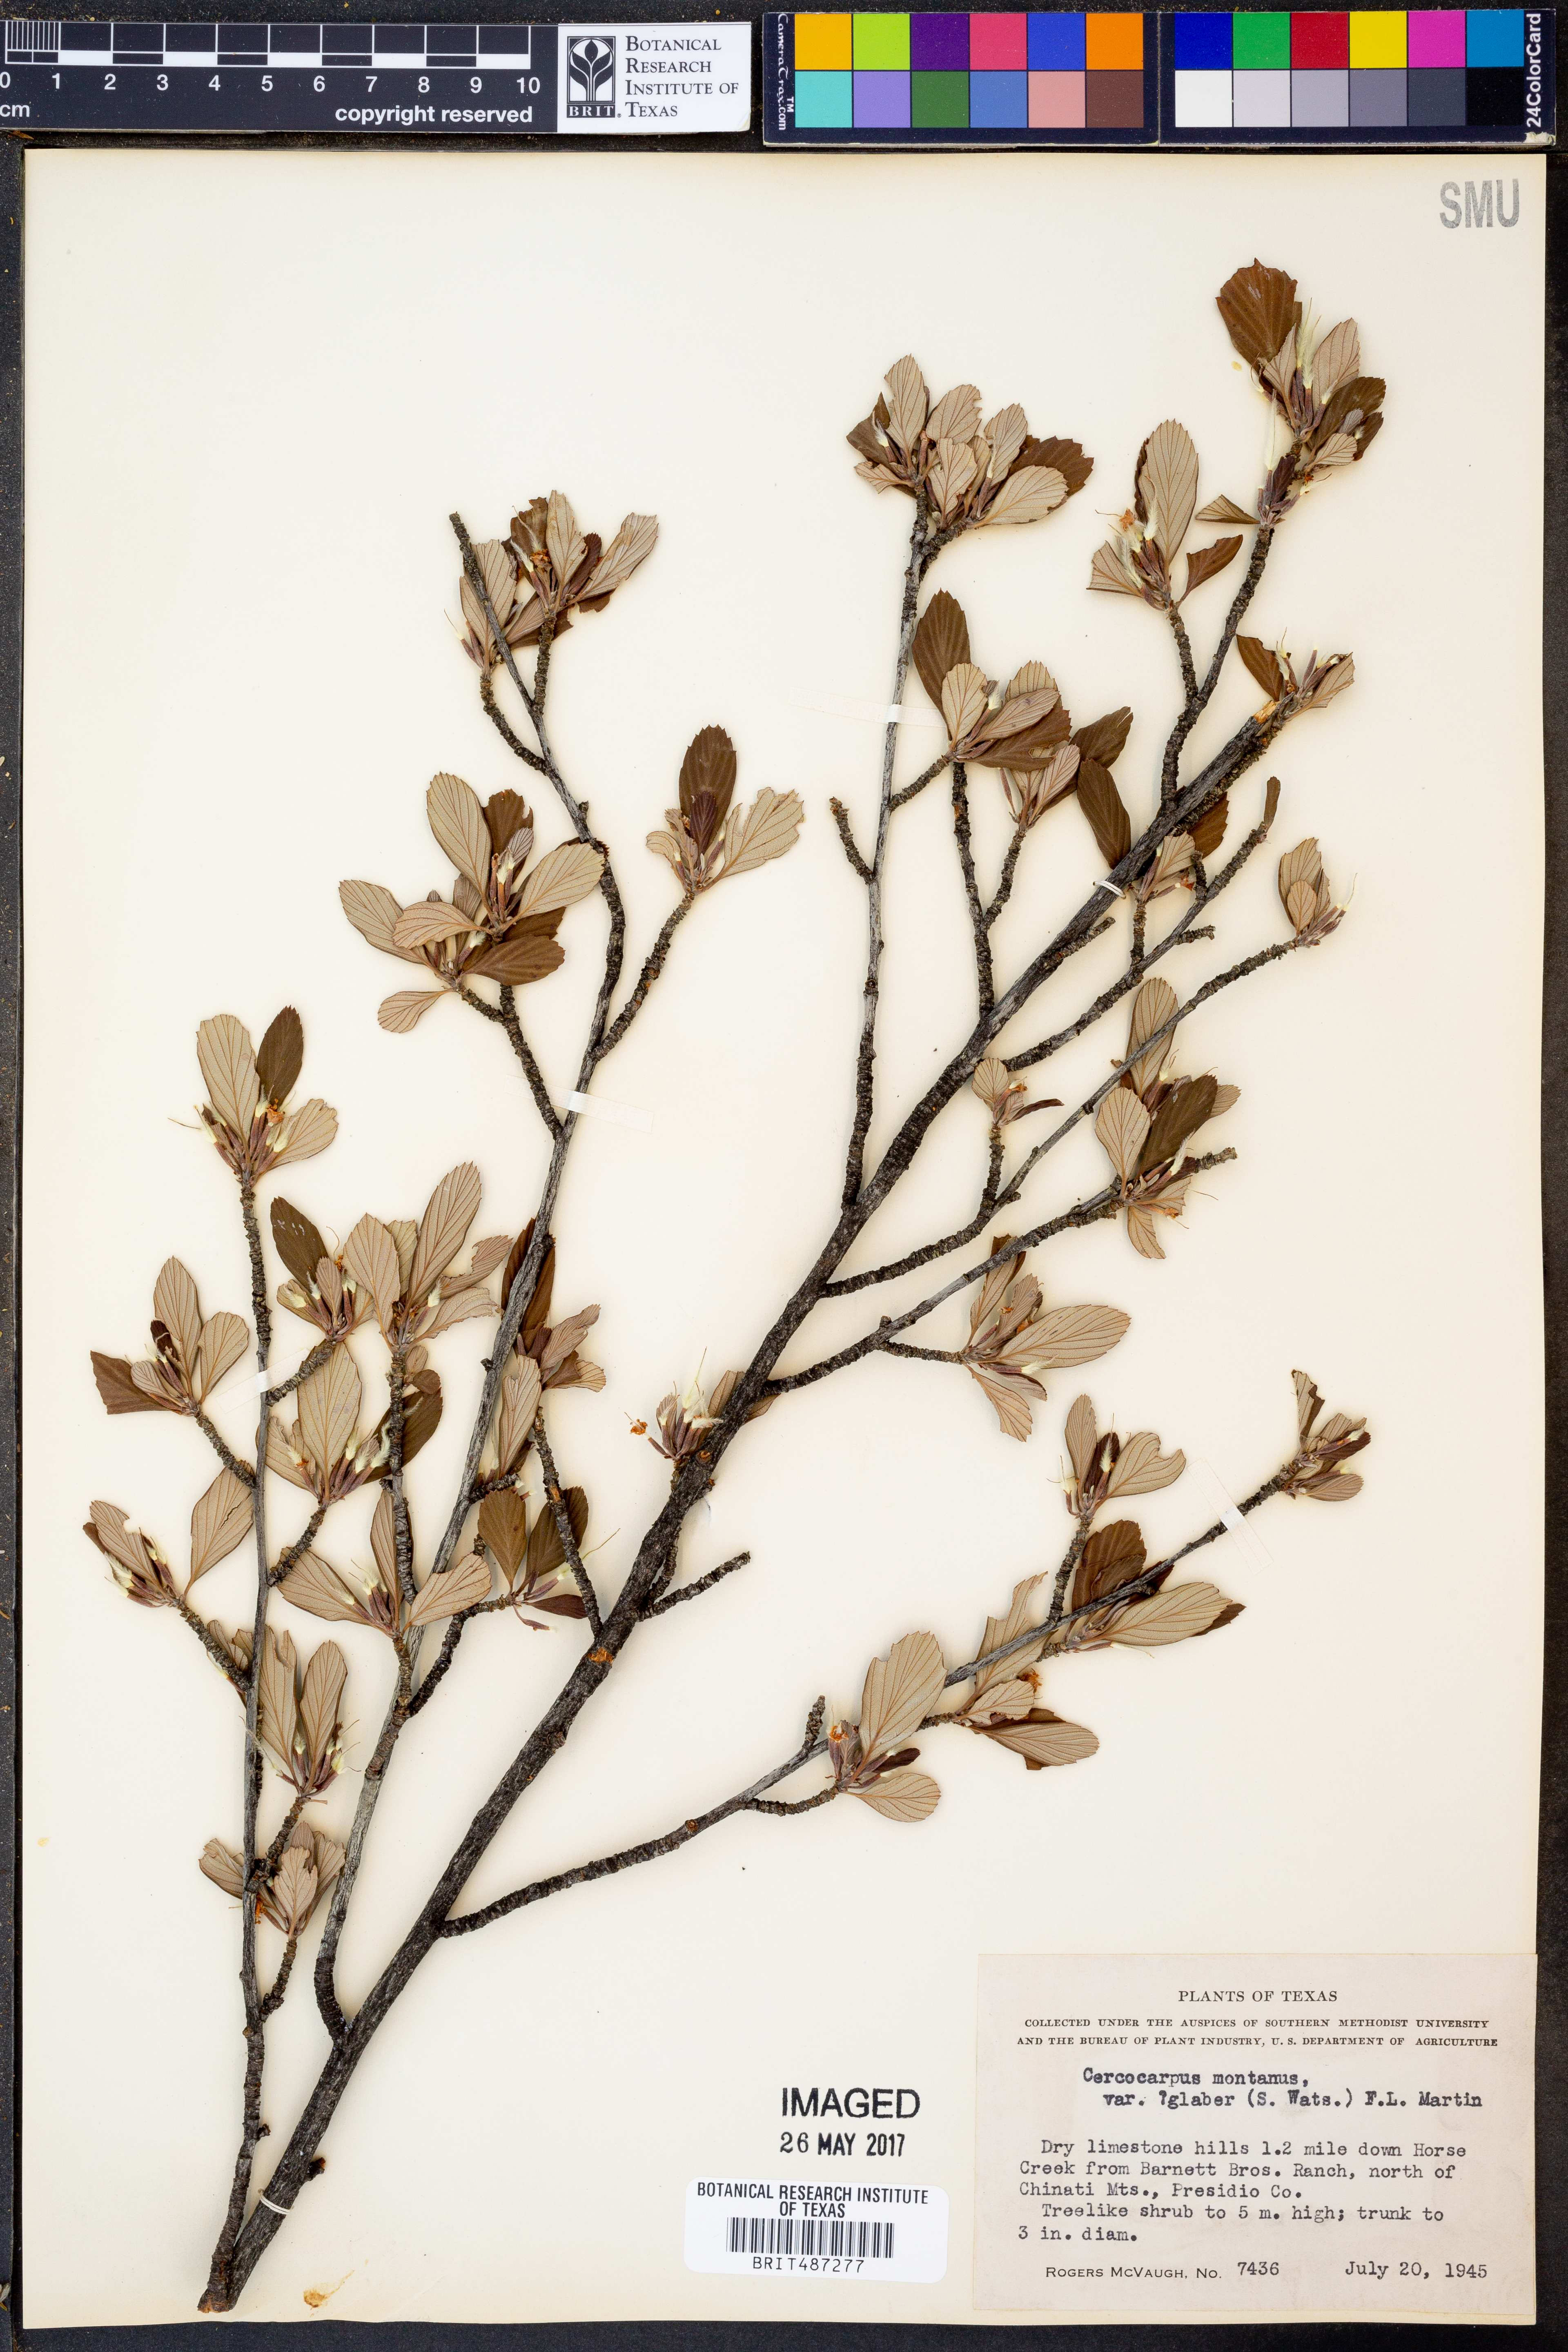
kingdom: Plantae
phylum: Tracheophyta
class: Magnoliopsida
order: Rosales
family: Rosaceae
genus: Cercocarpus
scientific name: Cercocarpus betuloides
